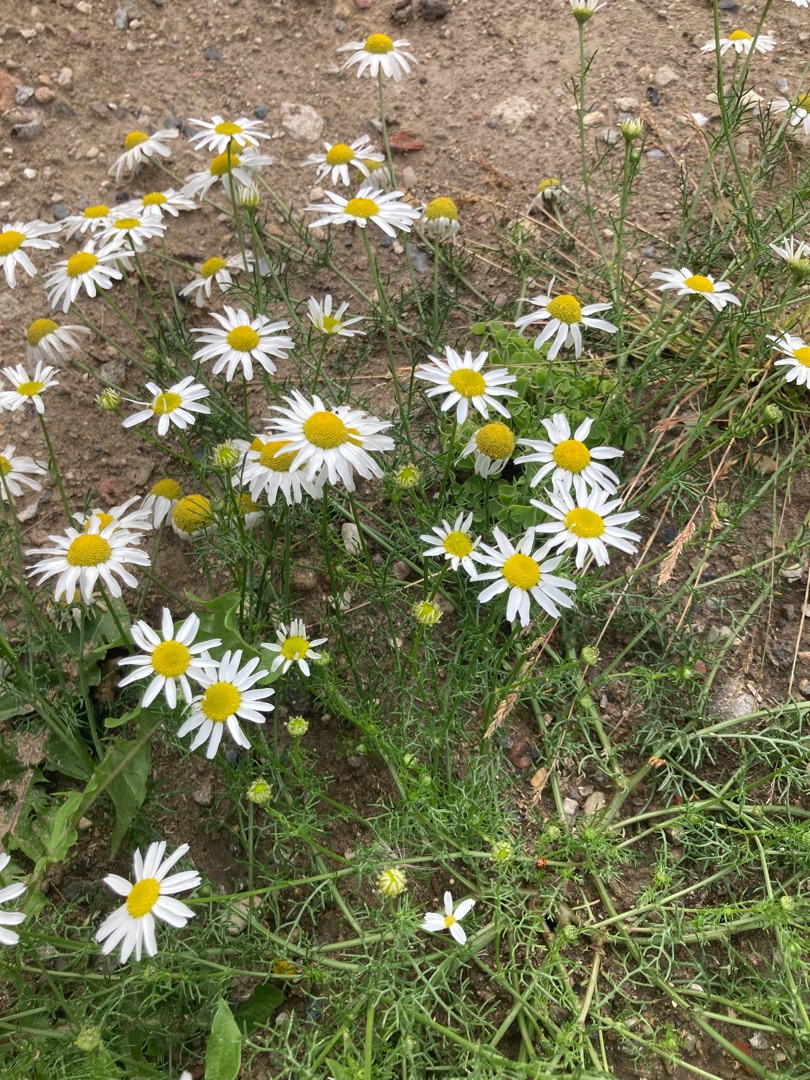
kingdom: Plantae
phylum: Tracheophyta
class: Magnoliopsida
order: Asterales
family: Asteraceae
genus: Tripleurospermum
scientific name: Tripleurospermum inodorum
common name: Lugtløs kamille
